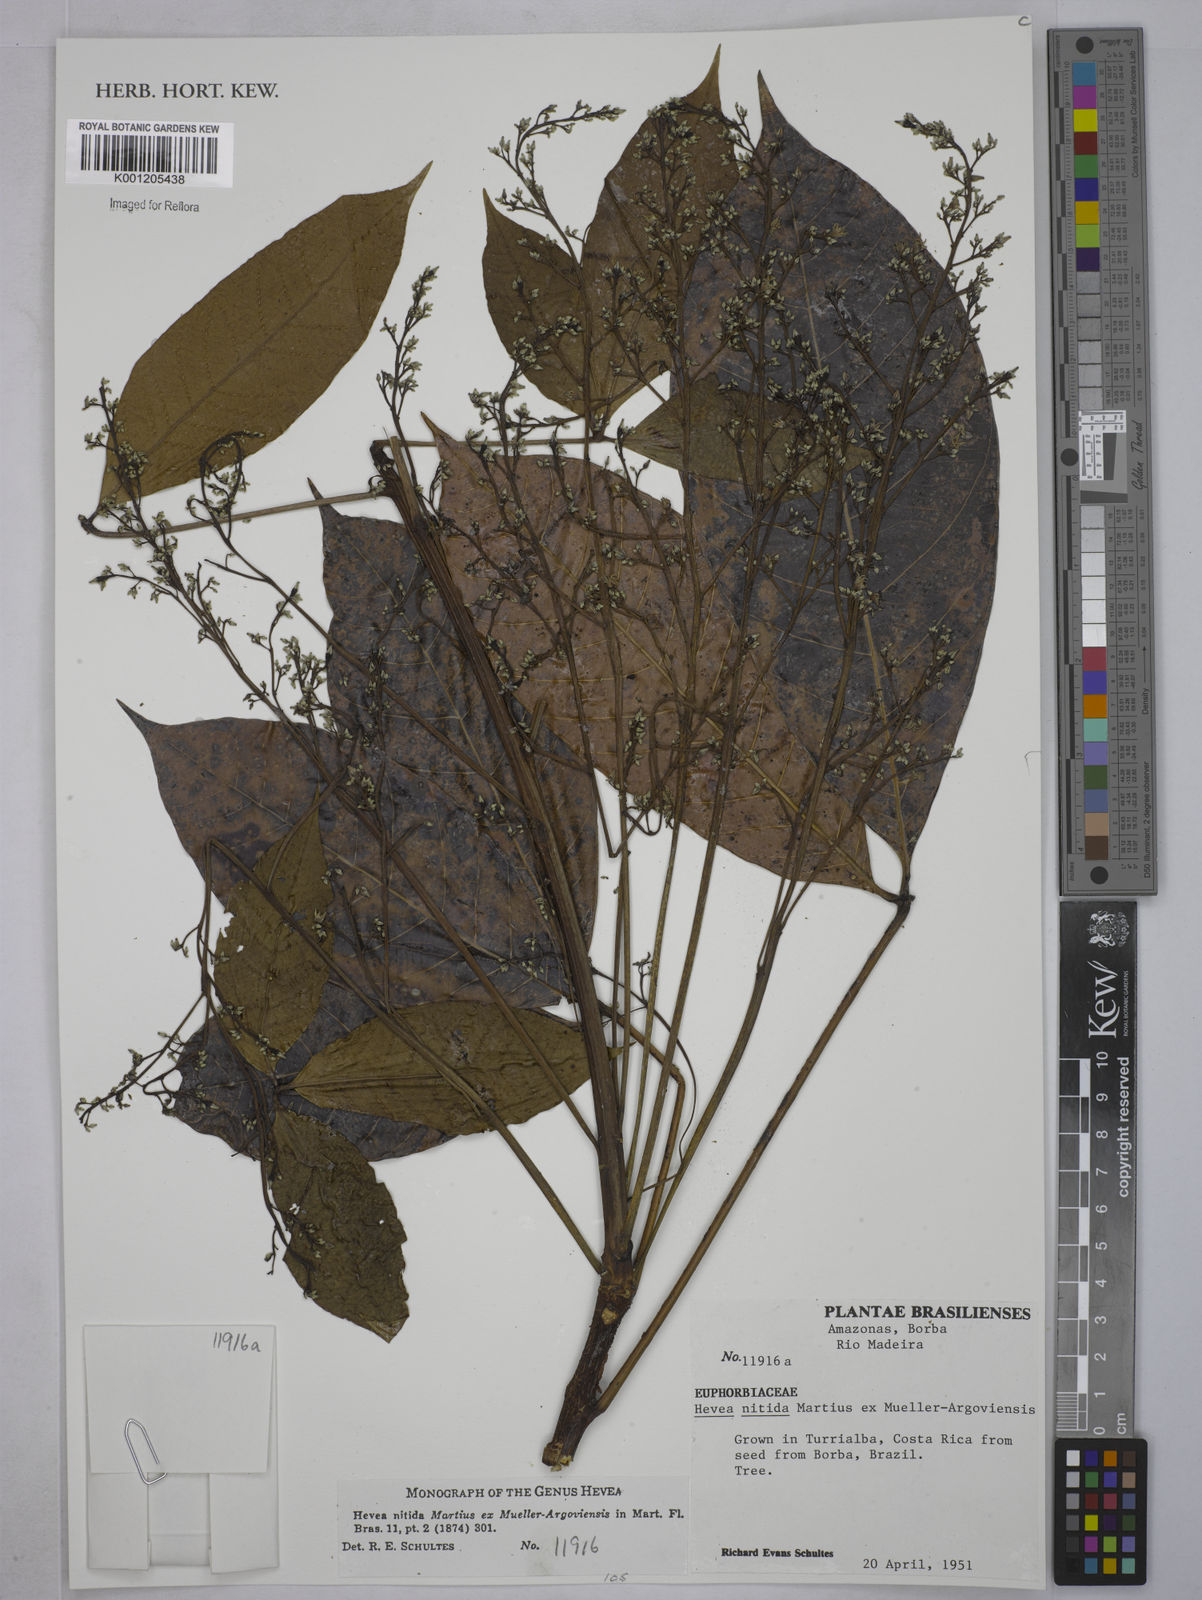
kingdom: Plantae
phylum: Tracheophyta
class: Magnoliopsida
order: Malpighiales
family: Euphorbiaceae
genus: Hevea
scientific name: Hevea
